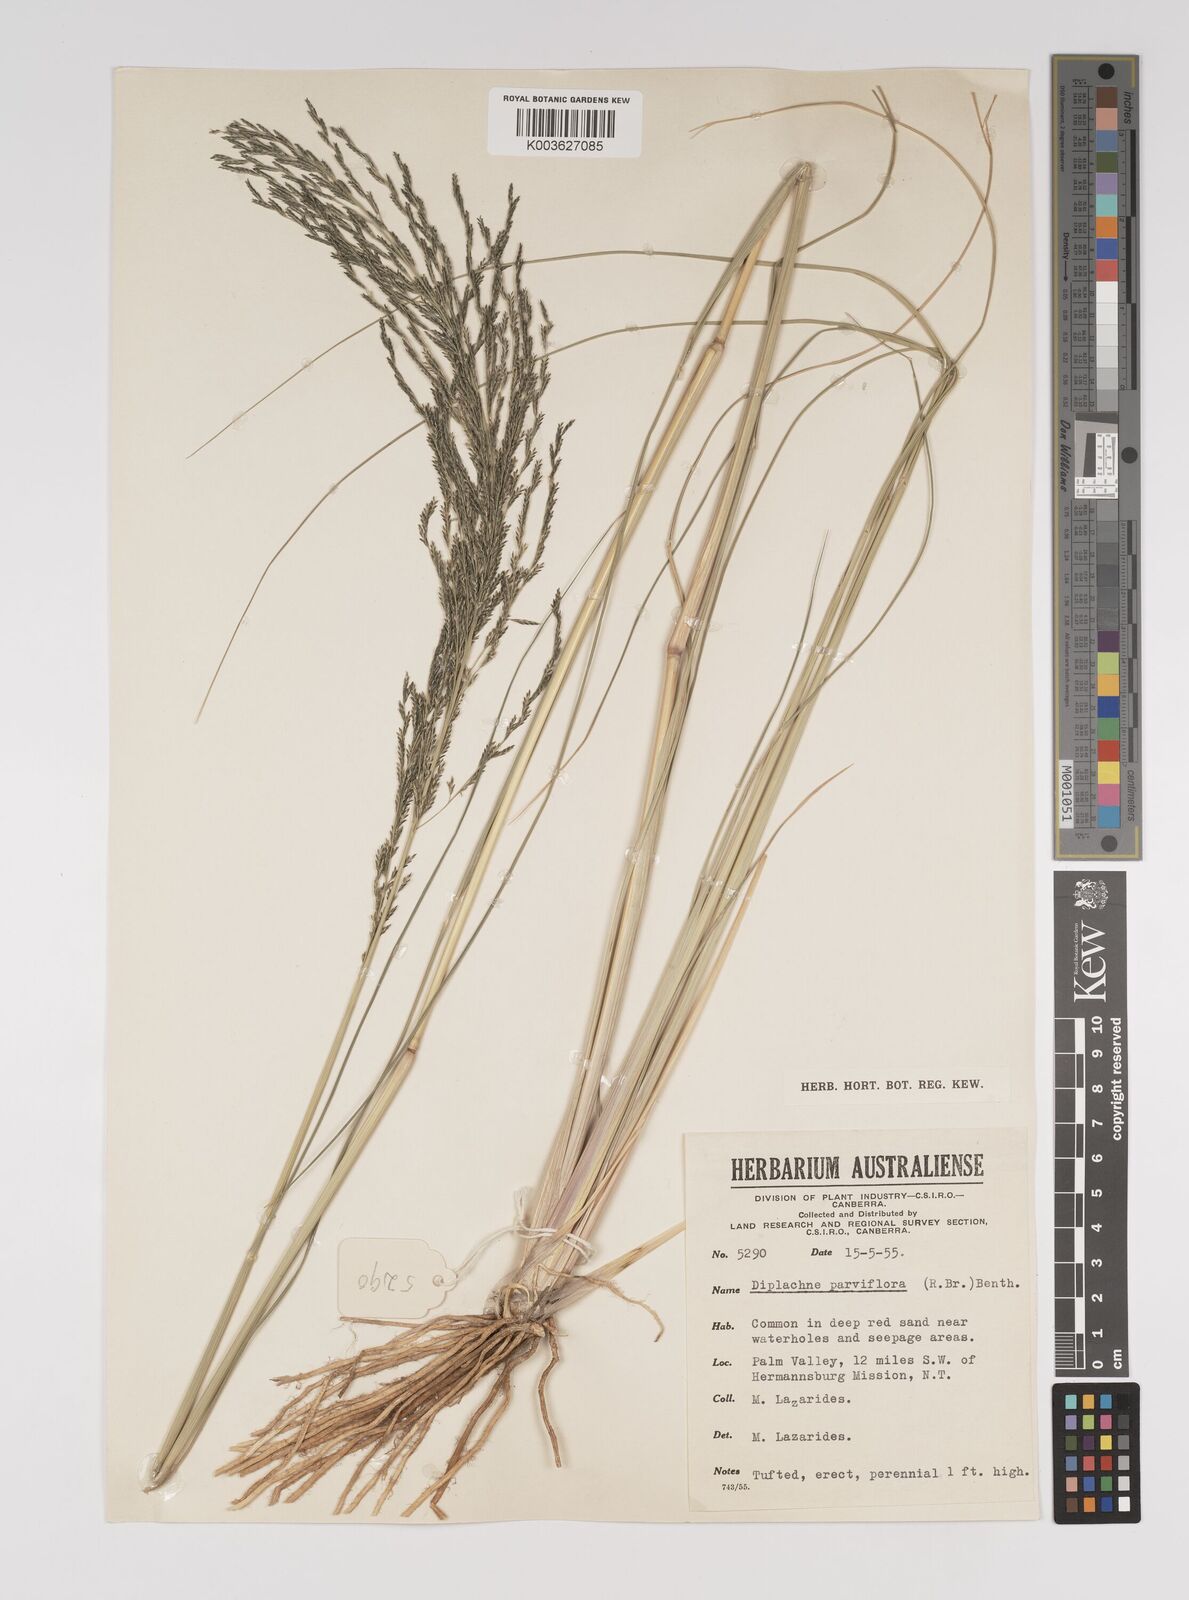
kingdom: Plantae
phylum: Tracheophyta
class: Liliopsida
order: Poales
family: Poaceae
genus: Diplachne
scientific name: Diplachne fusca
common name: Brown beetle grass
